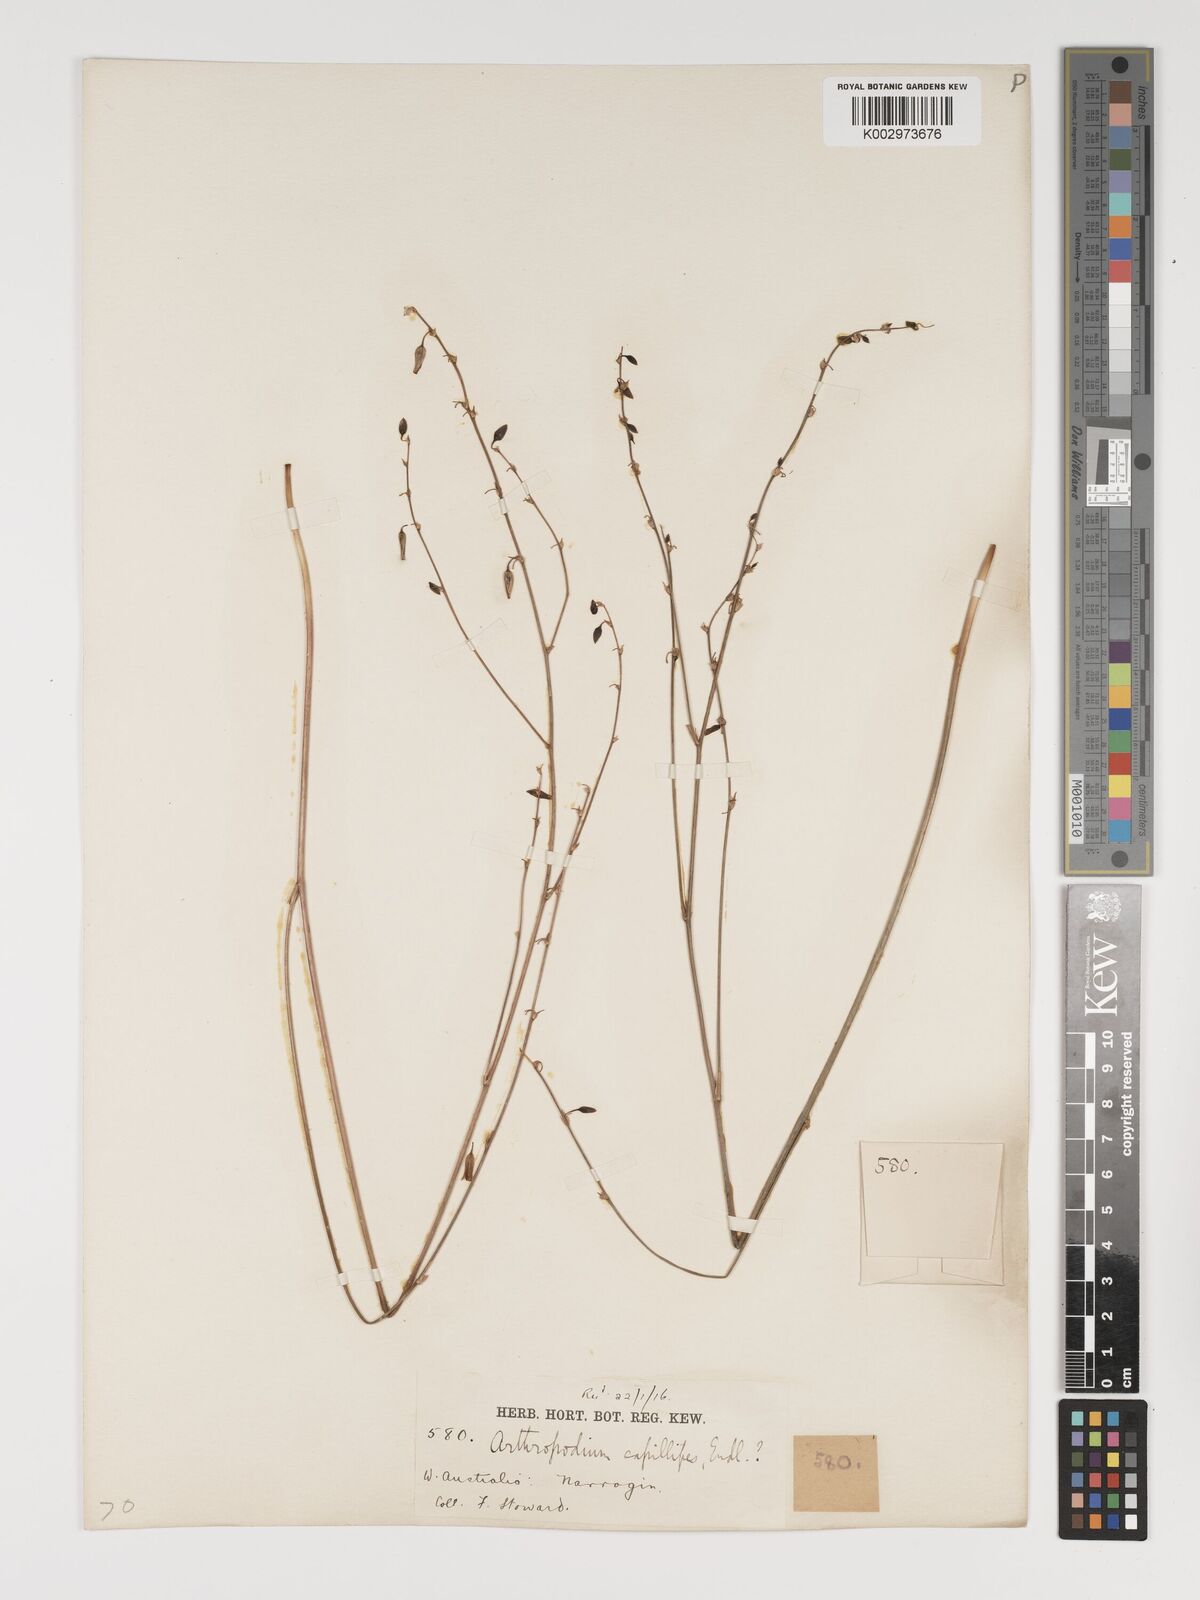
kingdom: Plantae
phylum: Tracheophyta
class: Liliopsida
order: Asparagales
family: Asparagaceae
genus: Dichopogon
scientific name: Dichopogon capillipes
